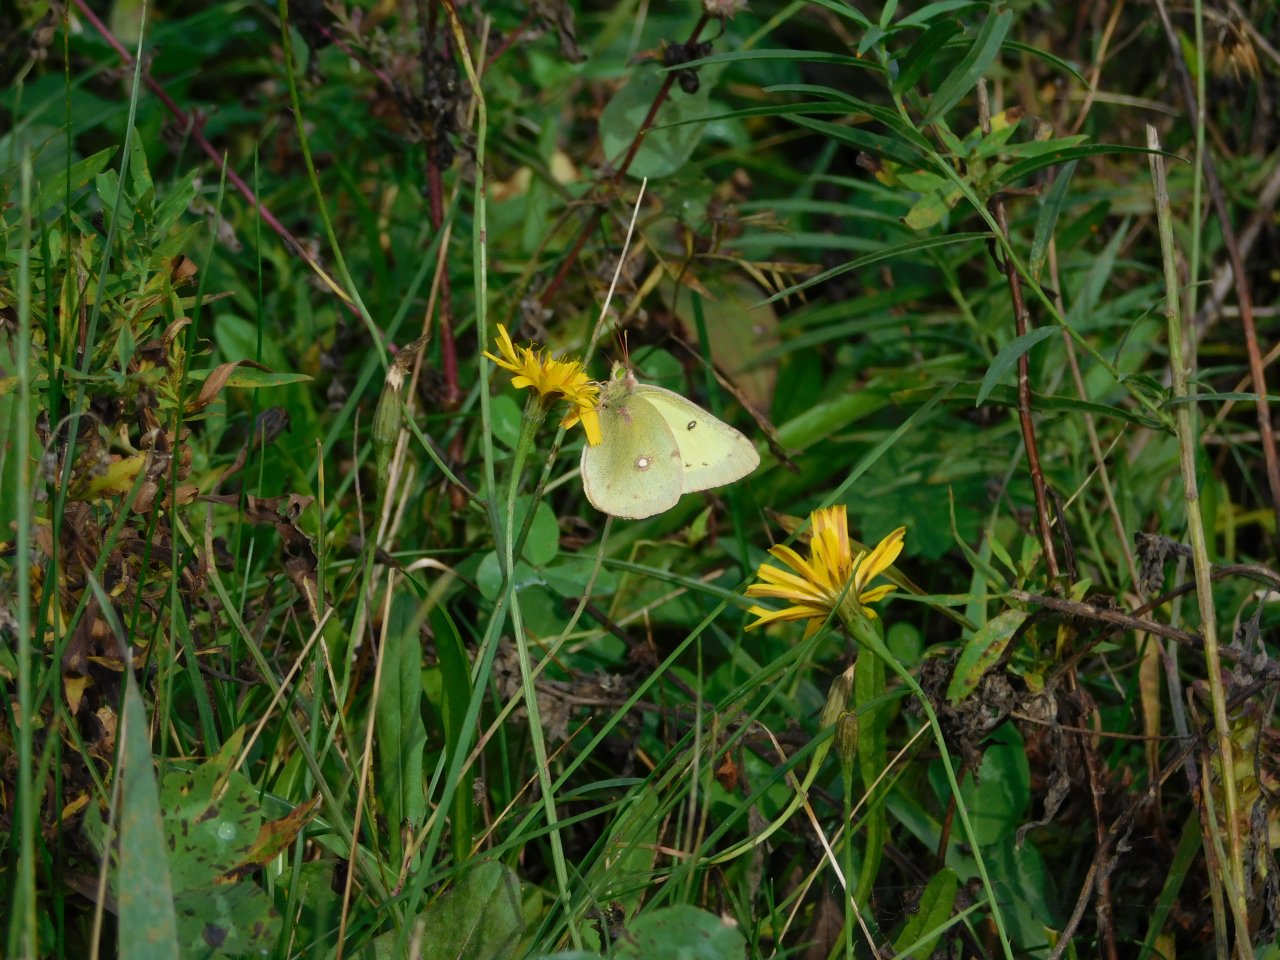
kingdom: Animalia
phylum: Arthropoda
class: Insecta
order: Lepidoptera
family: Pieridae
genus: Colias
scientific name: Colias philodice
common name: Clouded Sulphur
